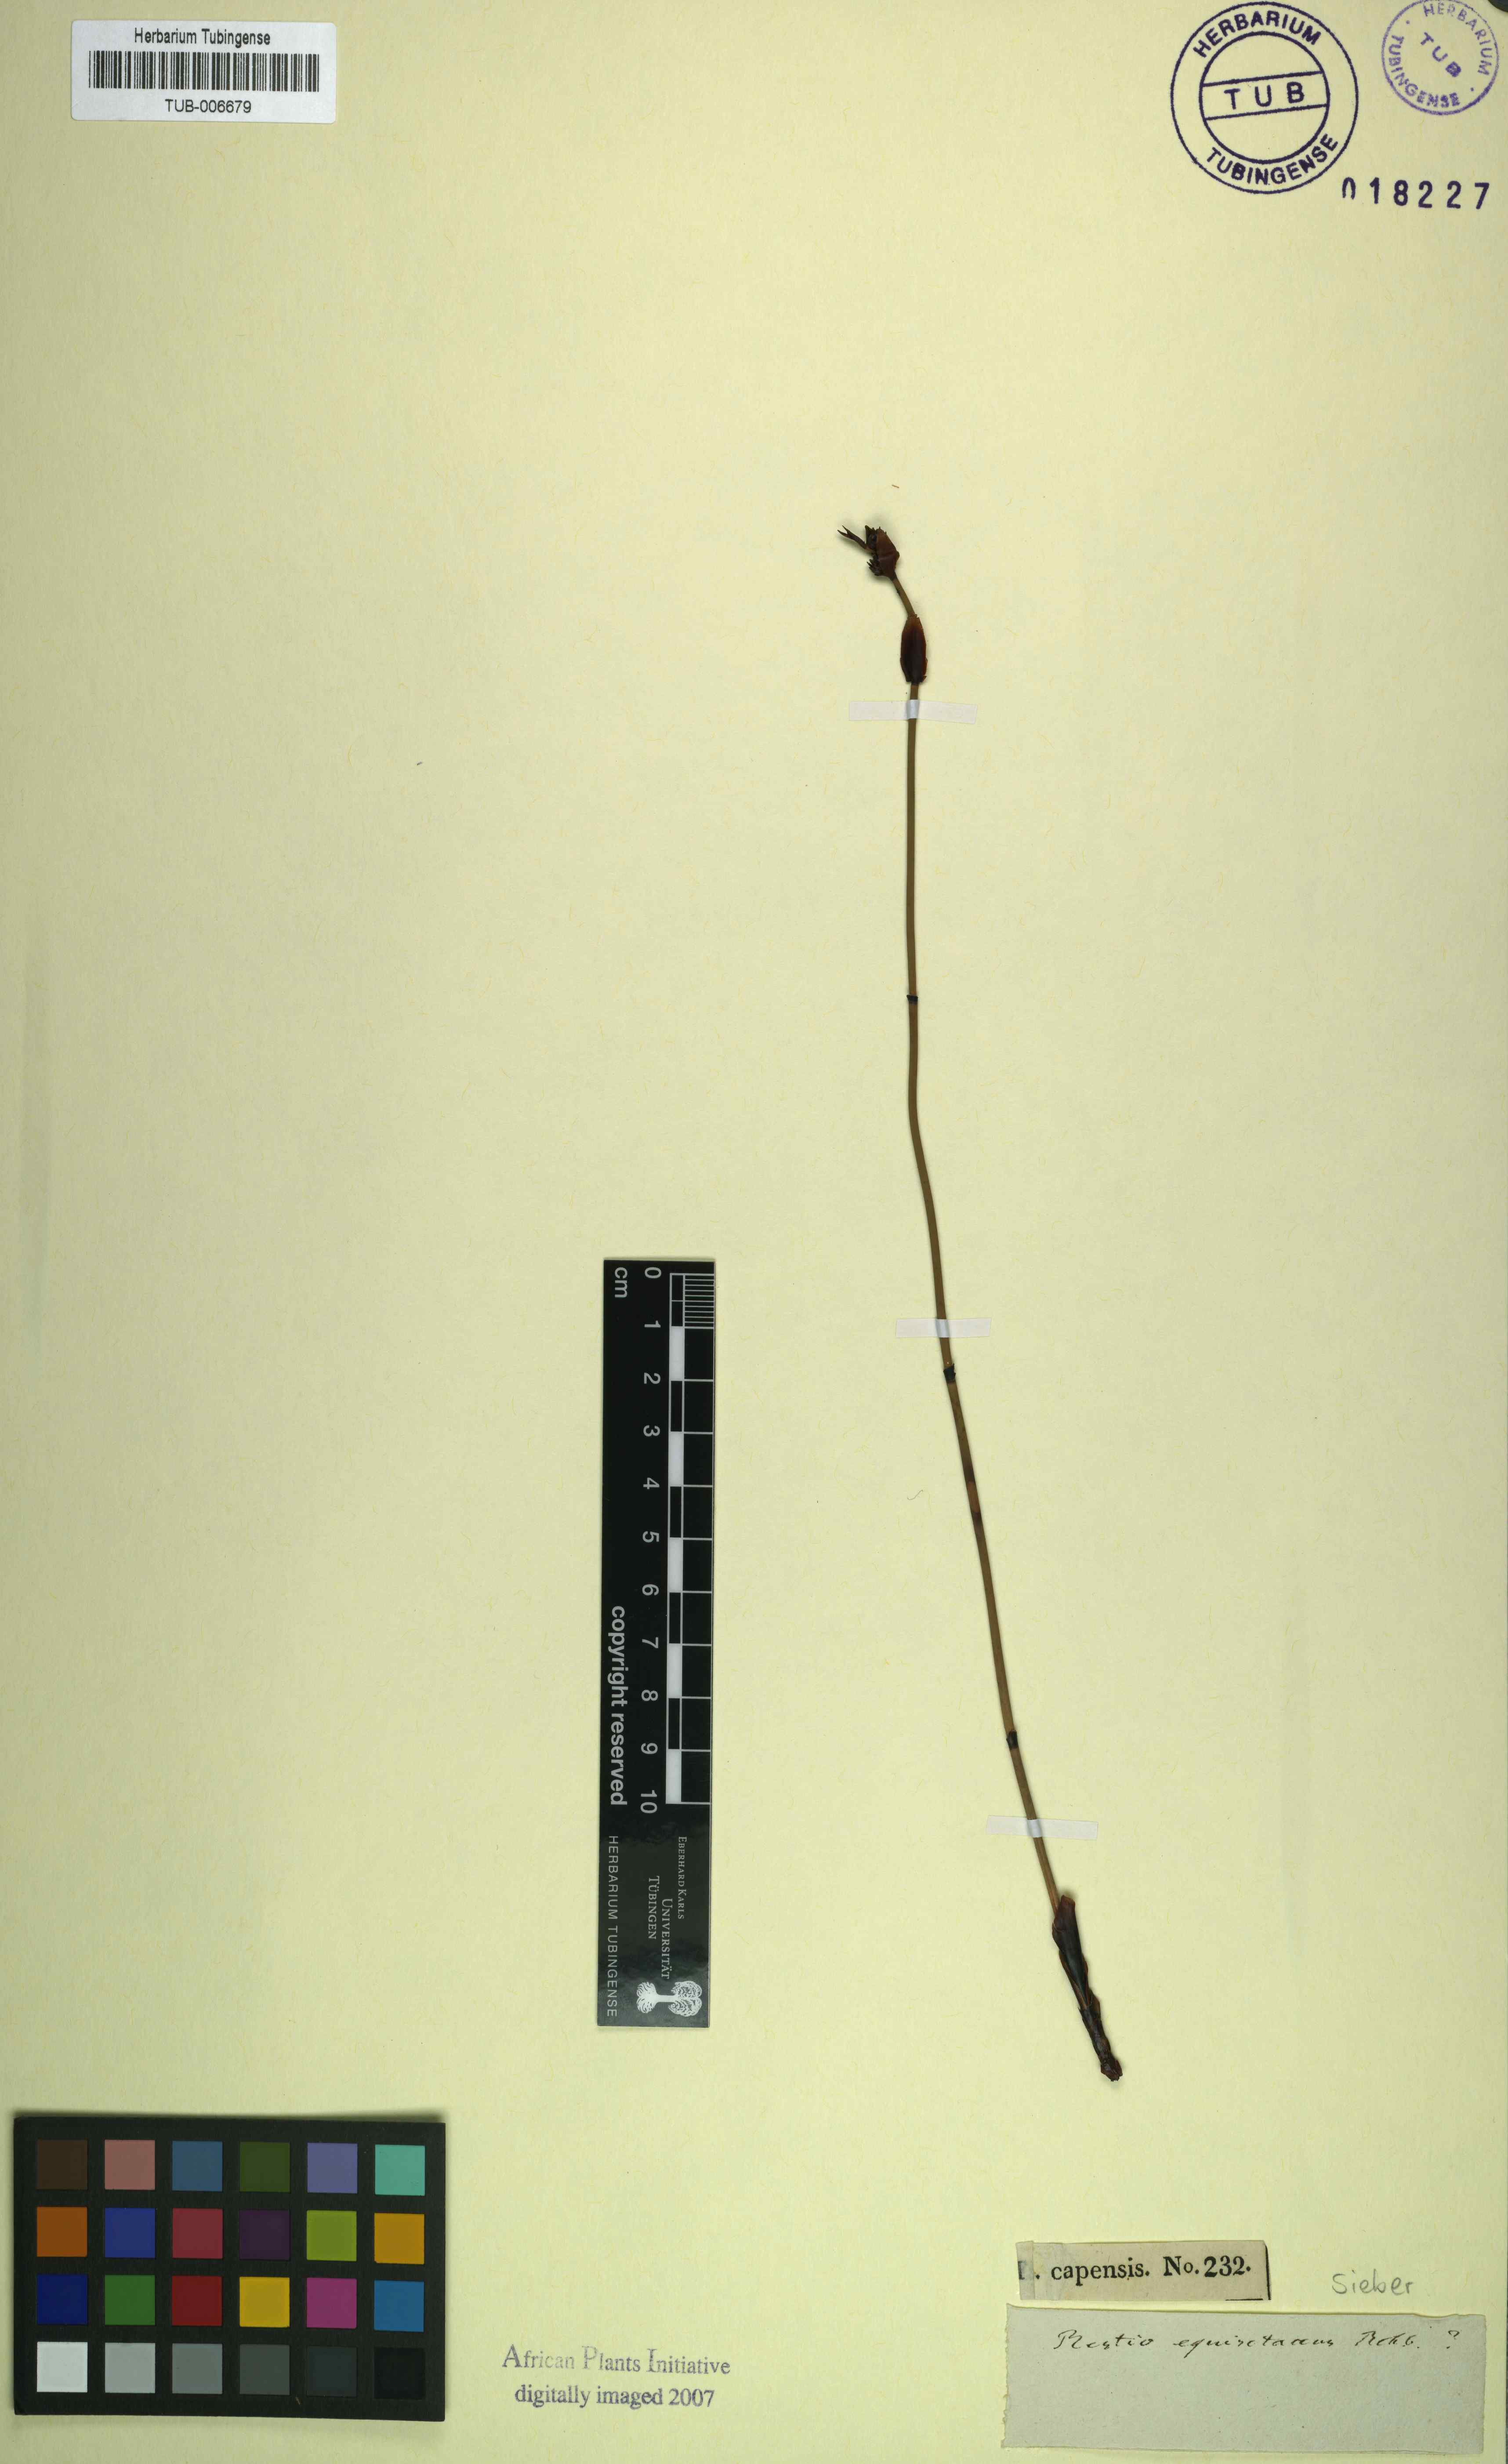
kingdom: Plantae
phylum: Tracheophyta
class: Liliopsida
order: Poales
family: Restionaceae
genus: Elegia
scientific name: Elegia macrocarpa
